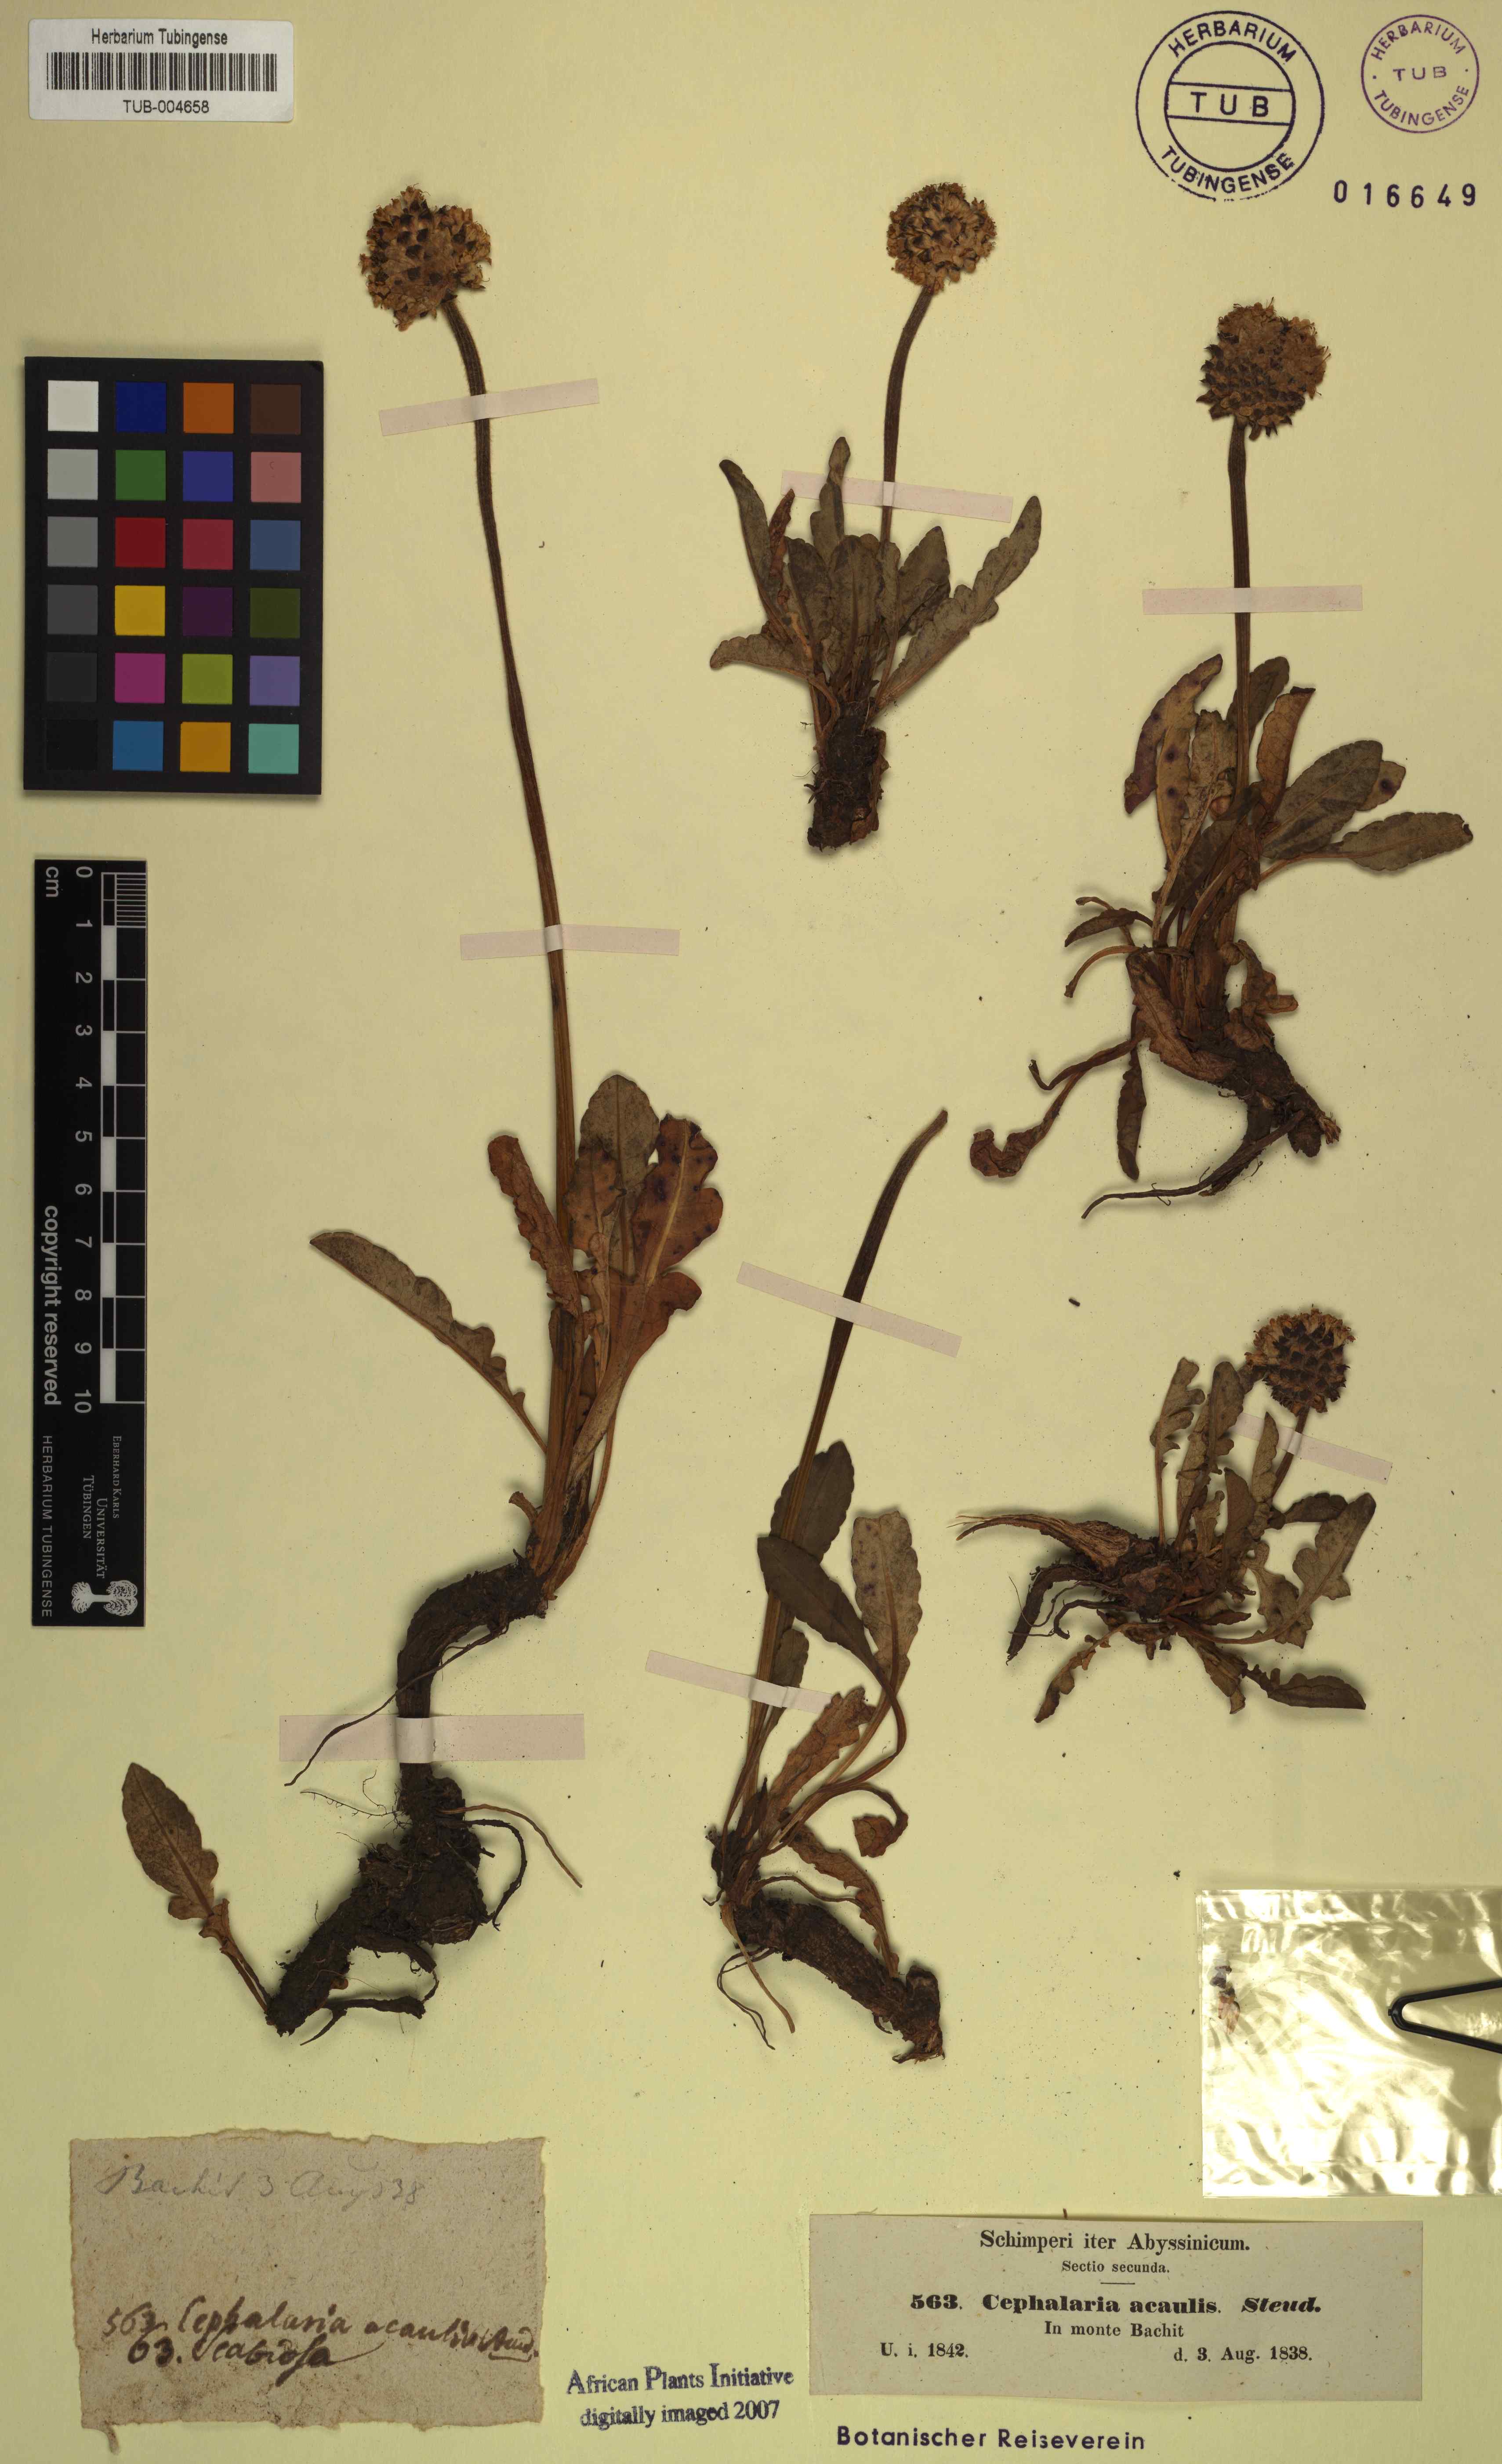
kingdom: Plantae
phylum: Tracheophyta
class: Magnoliopsida
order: Dipsacales
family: Caprifoliaceae
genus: Dipsacus
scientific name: Dipsacus pinnatifidus
